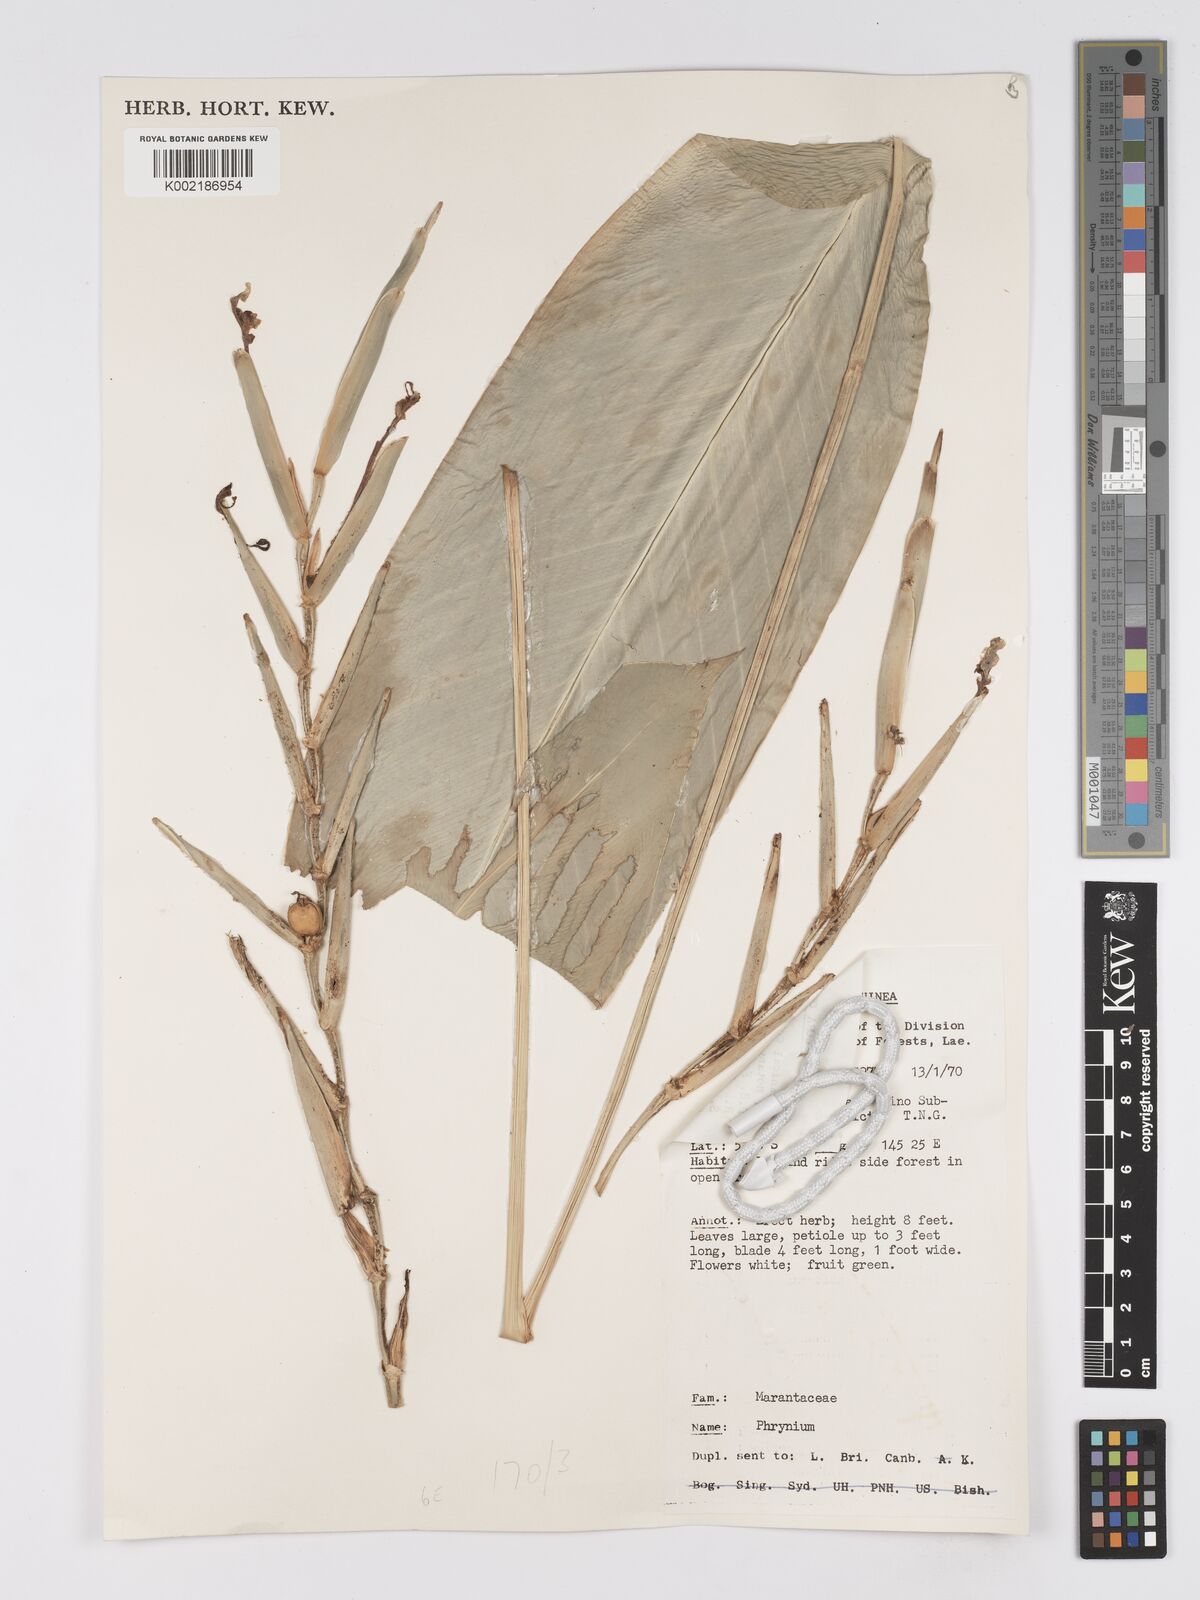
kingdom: Plantae
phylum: Tracheophyta
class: Liliopsida
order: Zingiberales
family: Marantaceae
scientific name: Marantaceae
